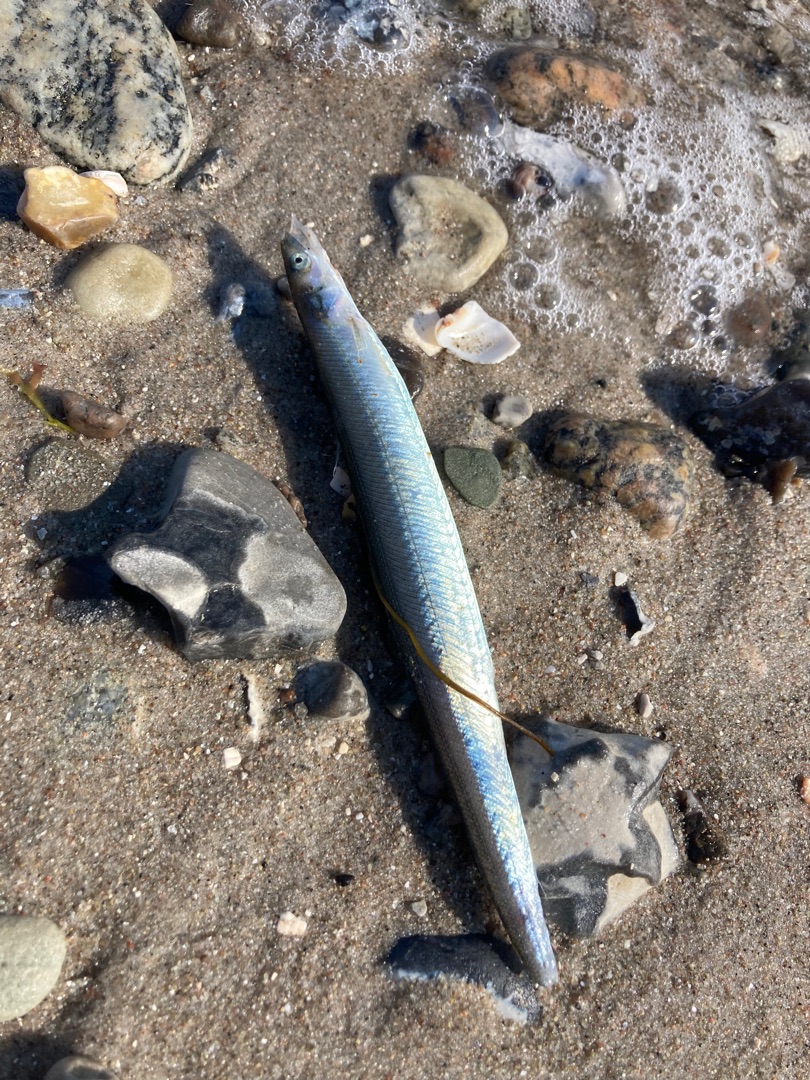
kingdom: Animalia
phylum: Chordata
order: Perciformes
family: Ammodytidae
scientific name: Ammodytidae
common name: Tobisfamilien
